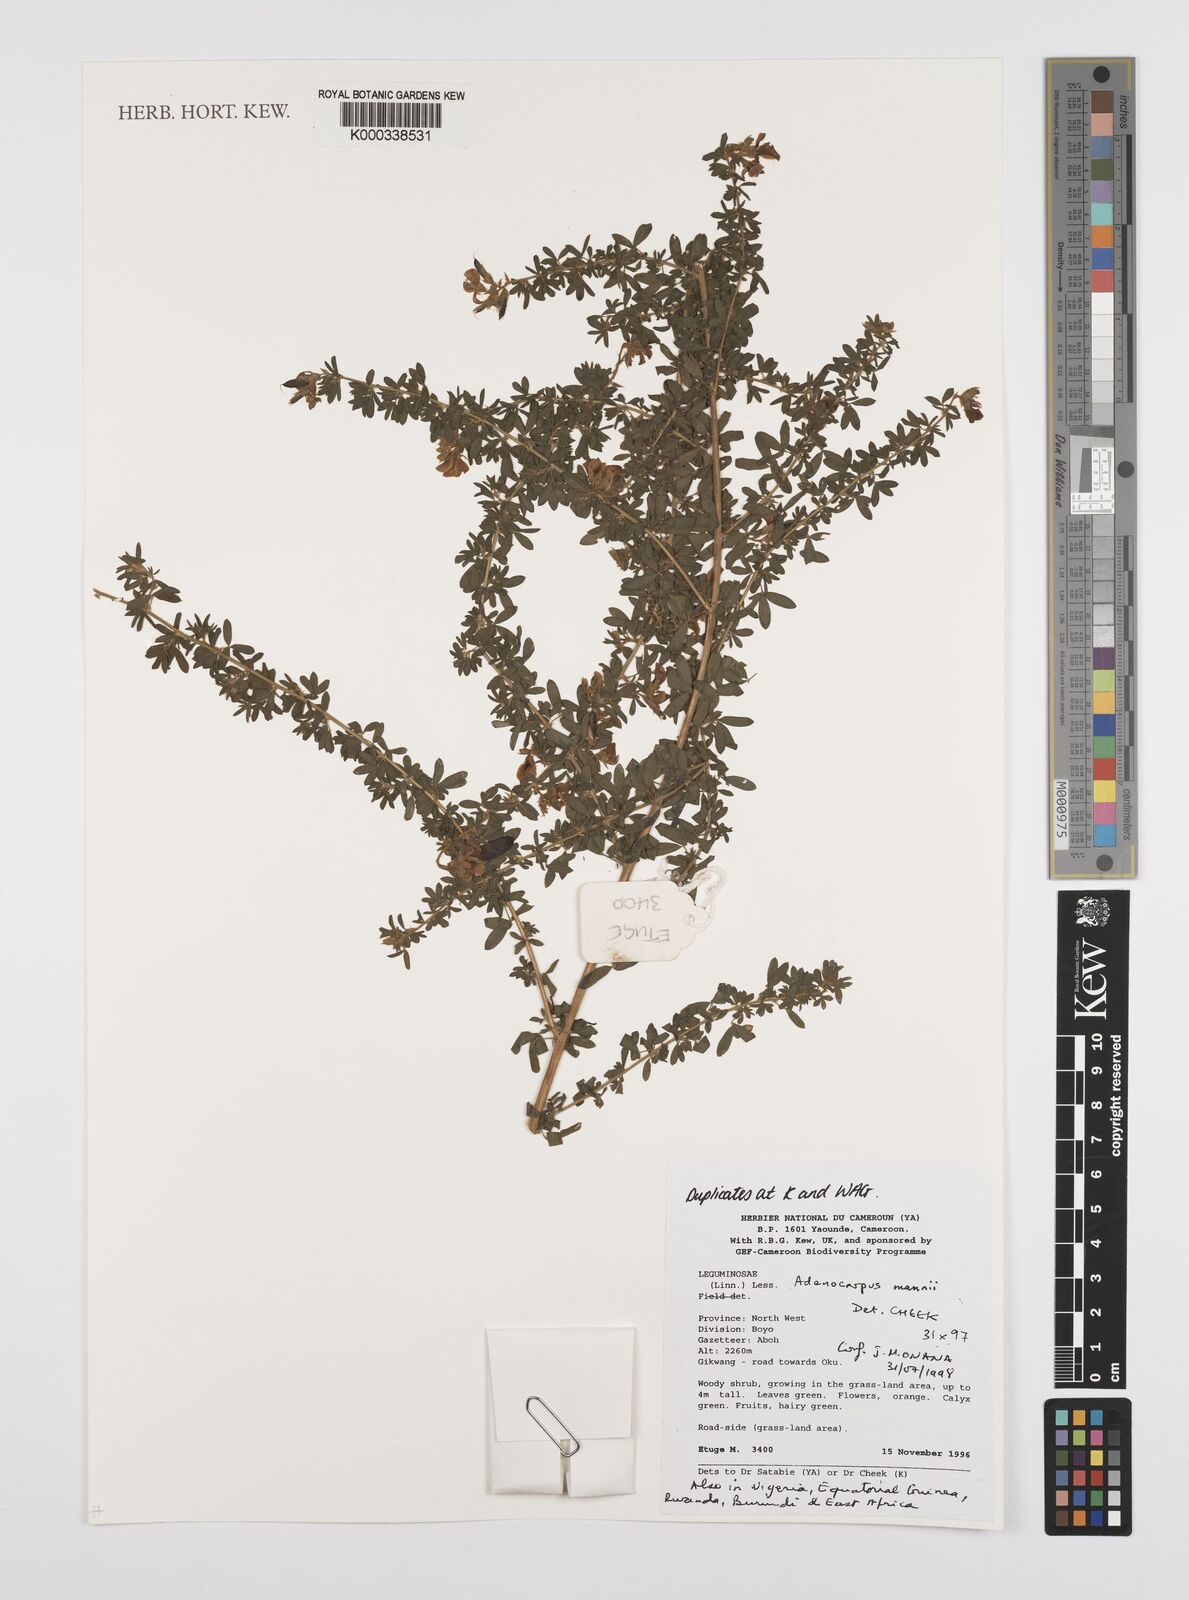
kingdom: Plantae
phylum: Tracheophyta
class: Magnoliopsida
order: Fabales
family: Fabaceae
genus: Adenocarpus
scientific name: Adenocarpus mannii
